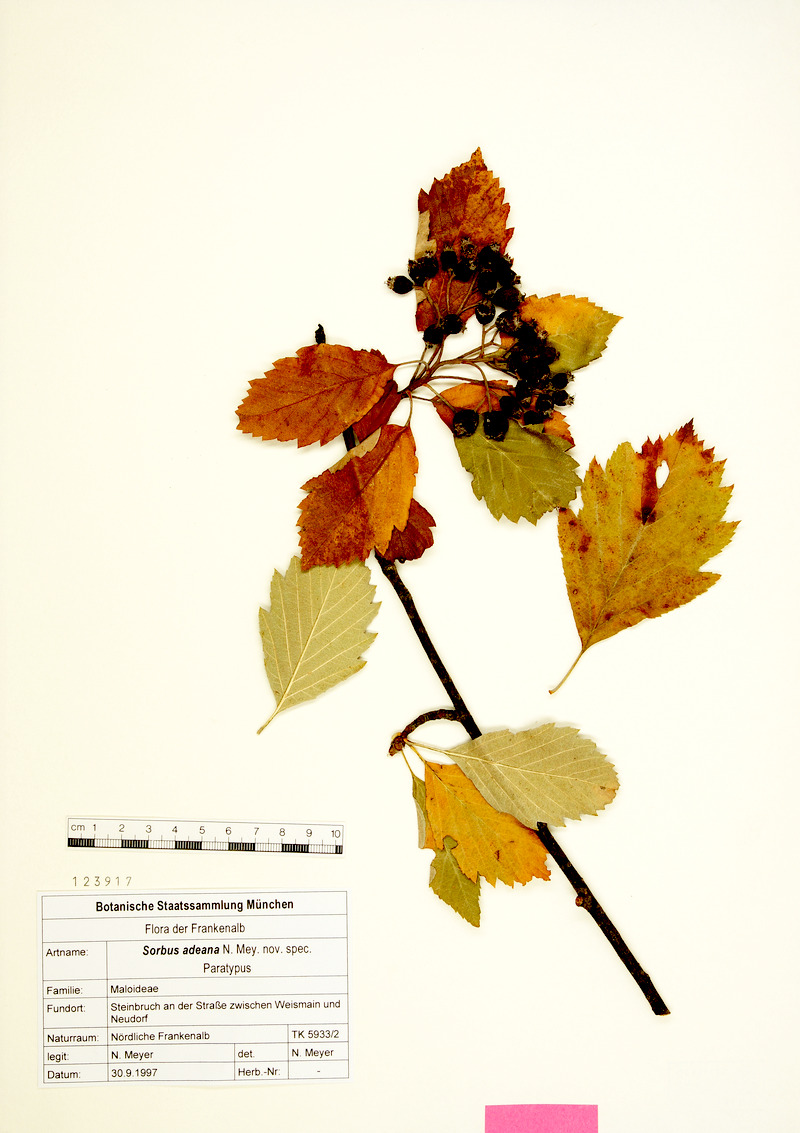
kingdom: Plantae
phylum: Tracheophyta
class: Magnoliopsida
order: Rosales
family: Rosaceae
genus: Karpatiosorbus
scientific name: Karpatiosorbus adeana
